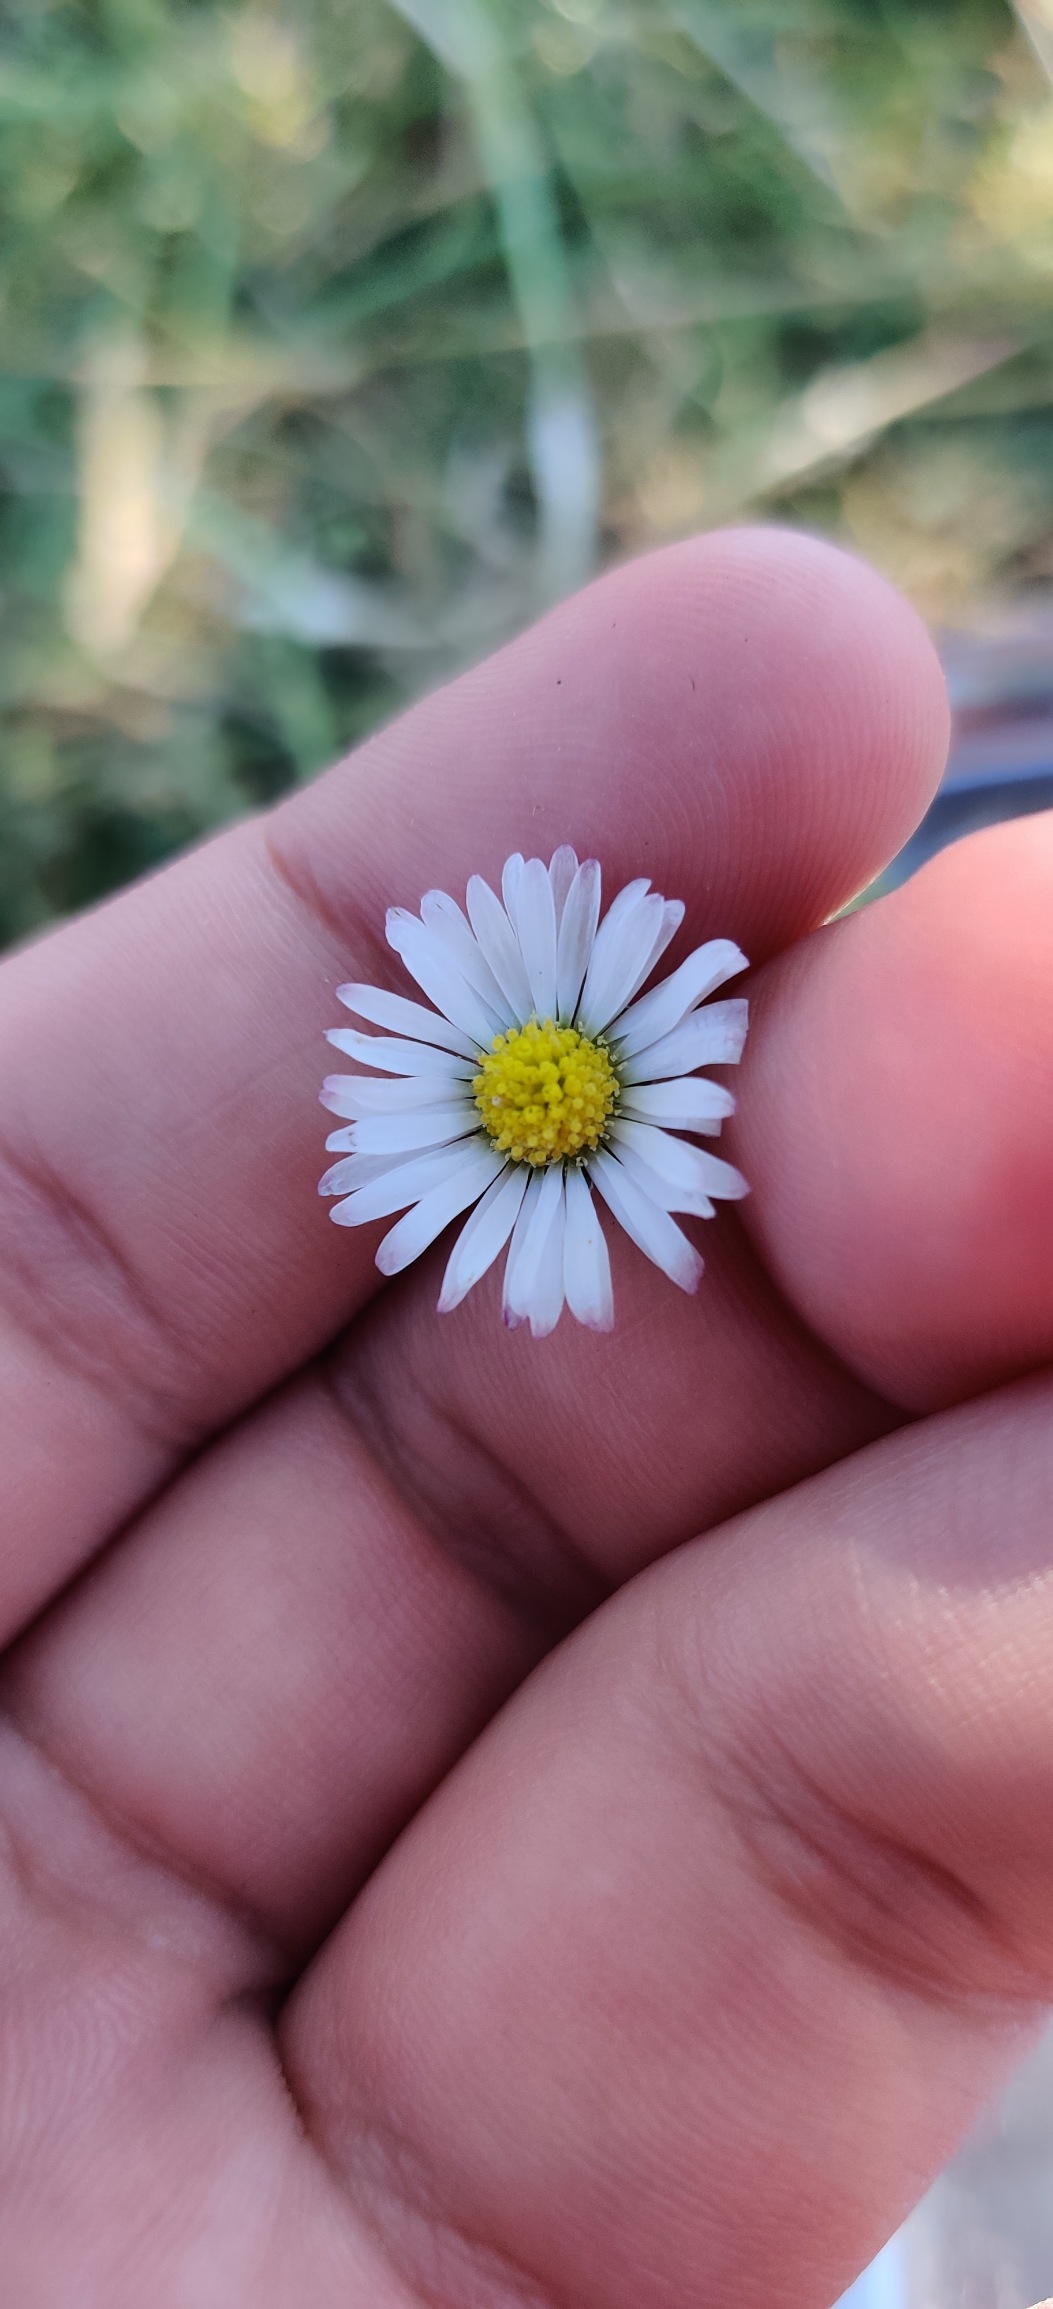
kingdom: Plantae
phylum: Tracheophyta
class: Magnoliopsida
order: Asterales
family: Asteraceae
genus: Bellis
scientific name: Bellis perennis
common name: Tusindfryd
